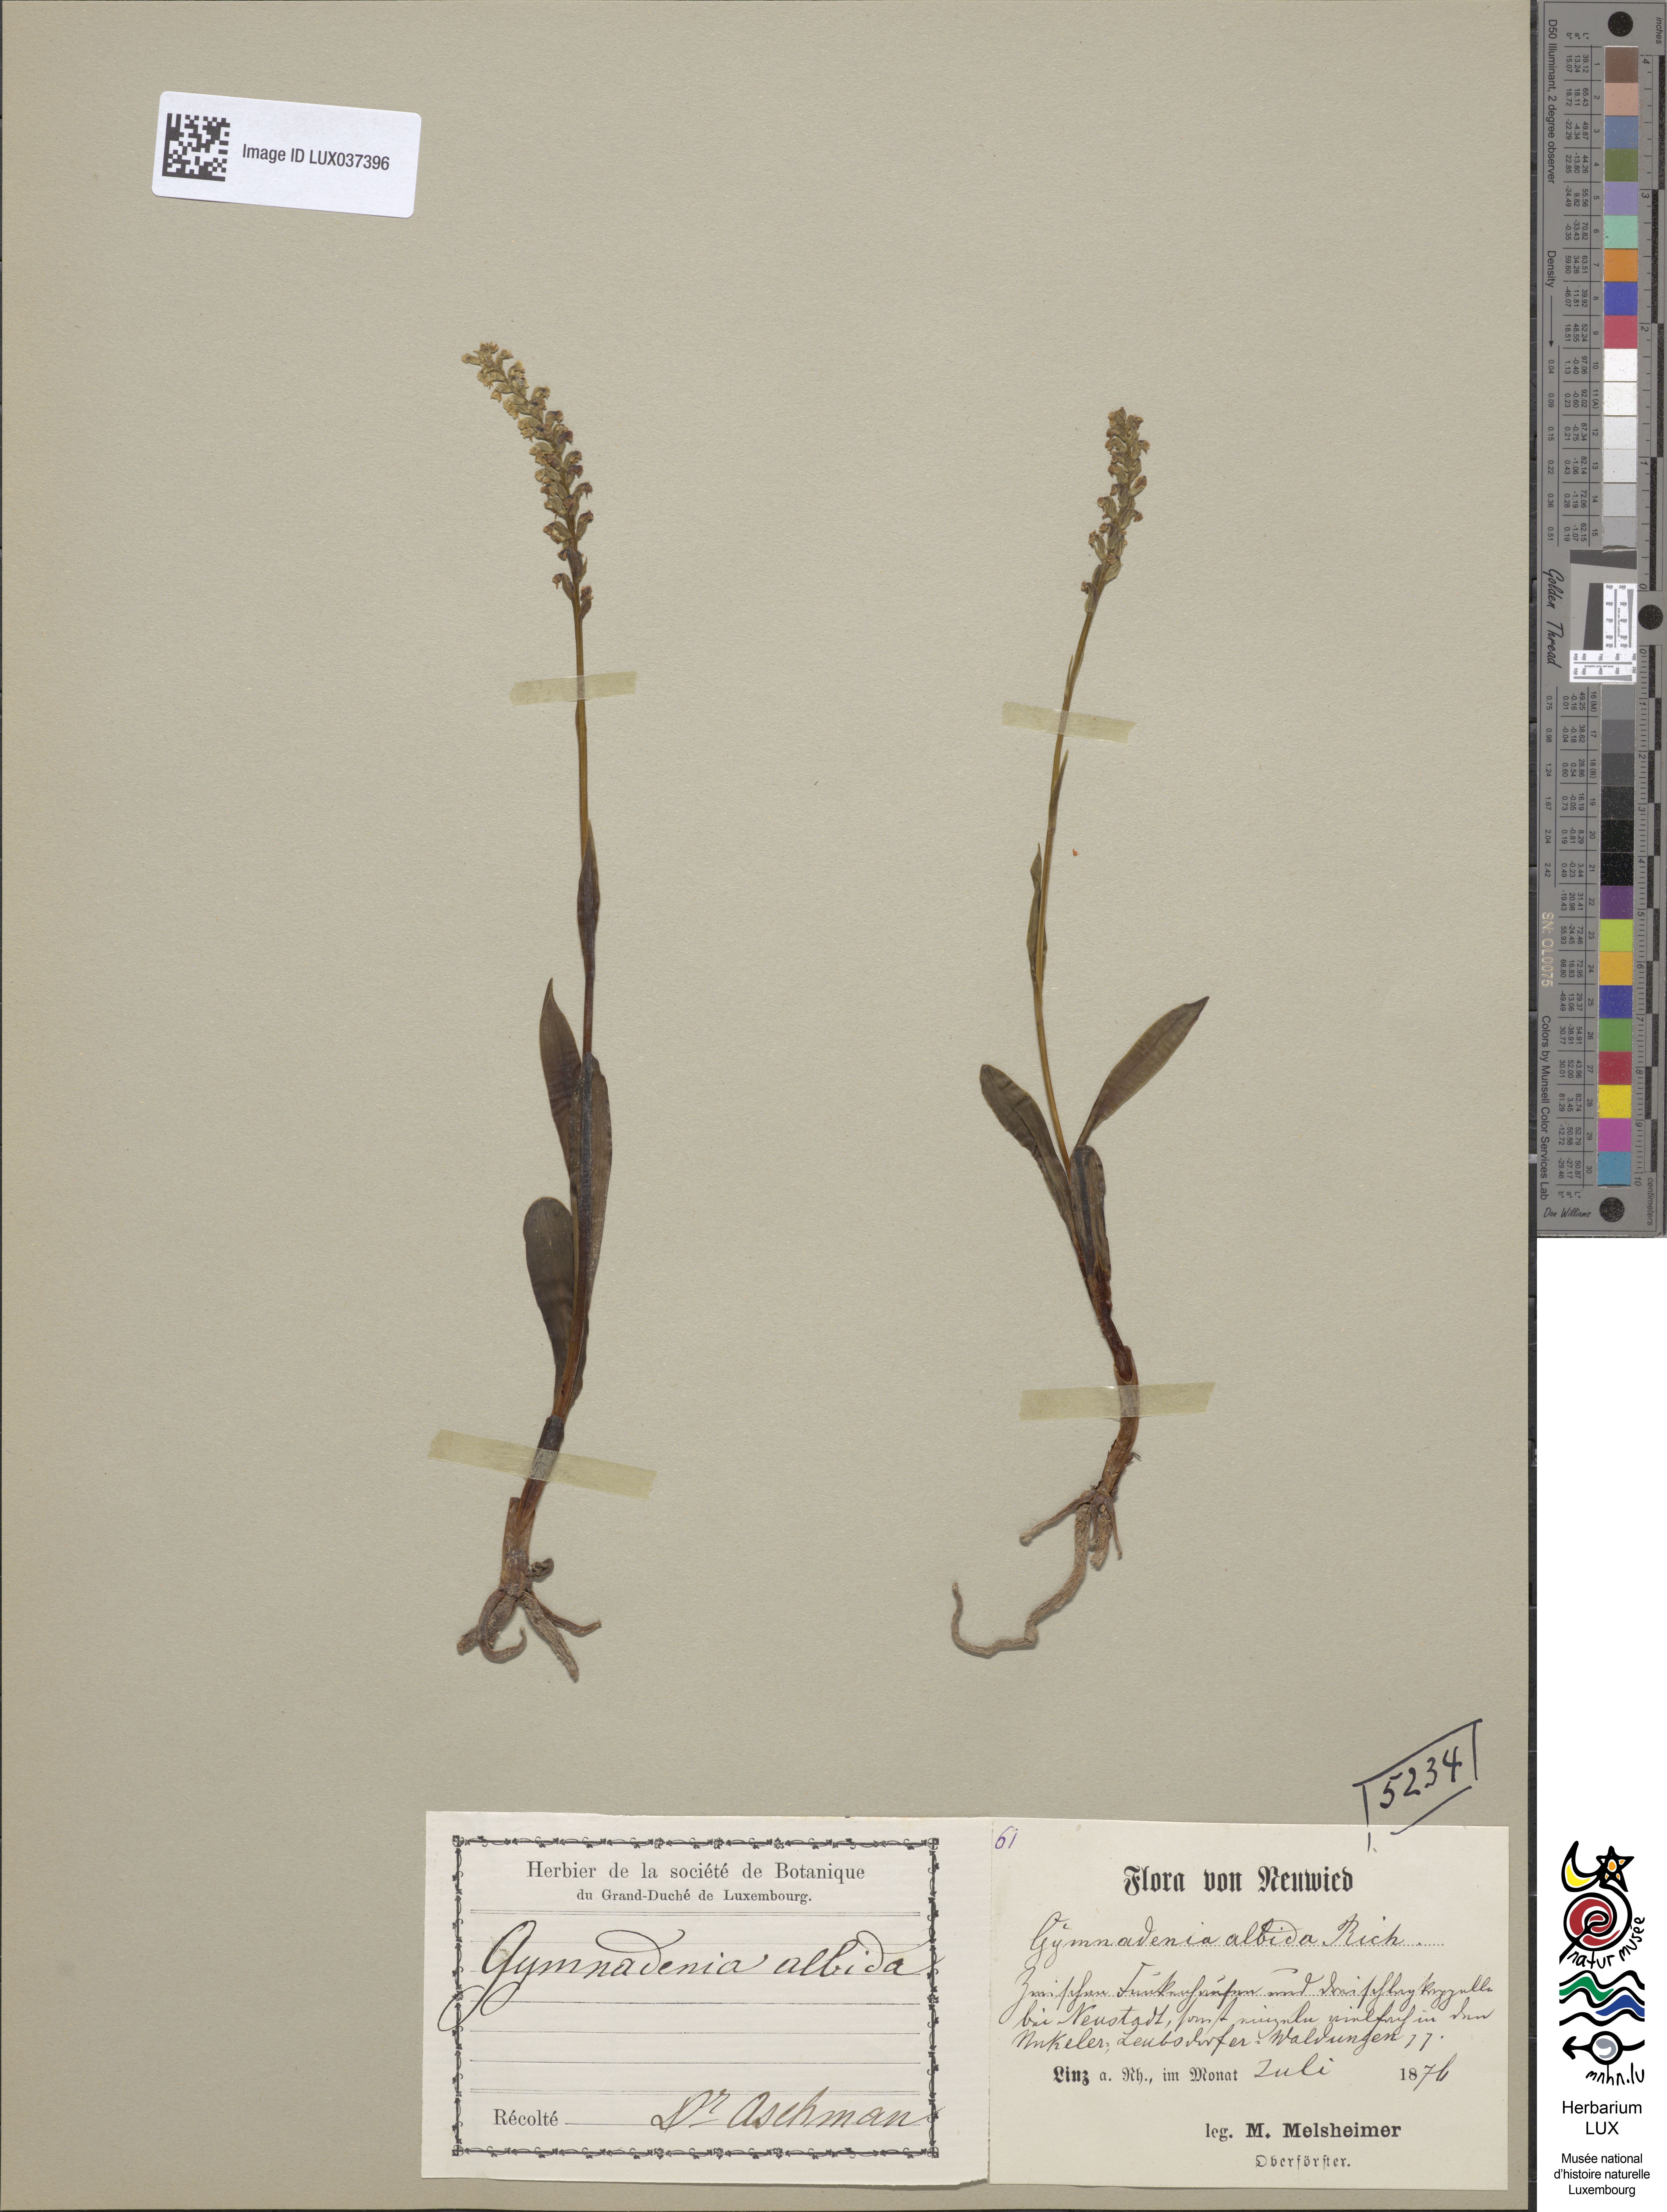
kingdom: Plantae
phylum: Tracheophyta
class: Liliopsida
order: Asparagales
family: Orchidaceae
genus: Pseudorchis
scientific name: Pseudorchis albida
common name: Small-white orchid
